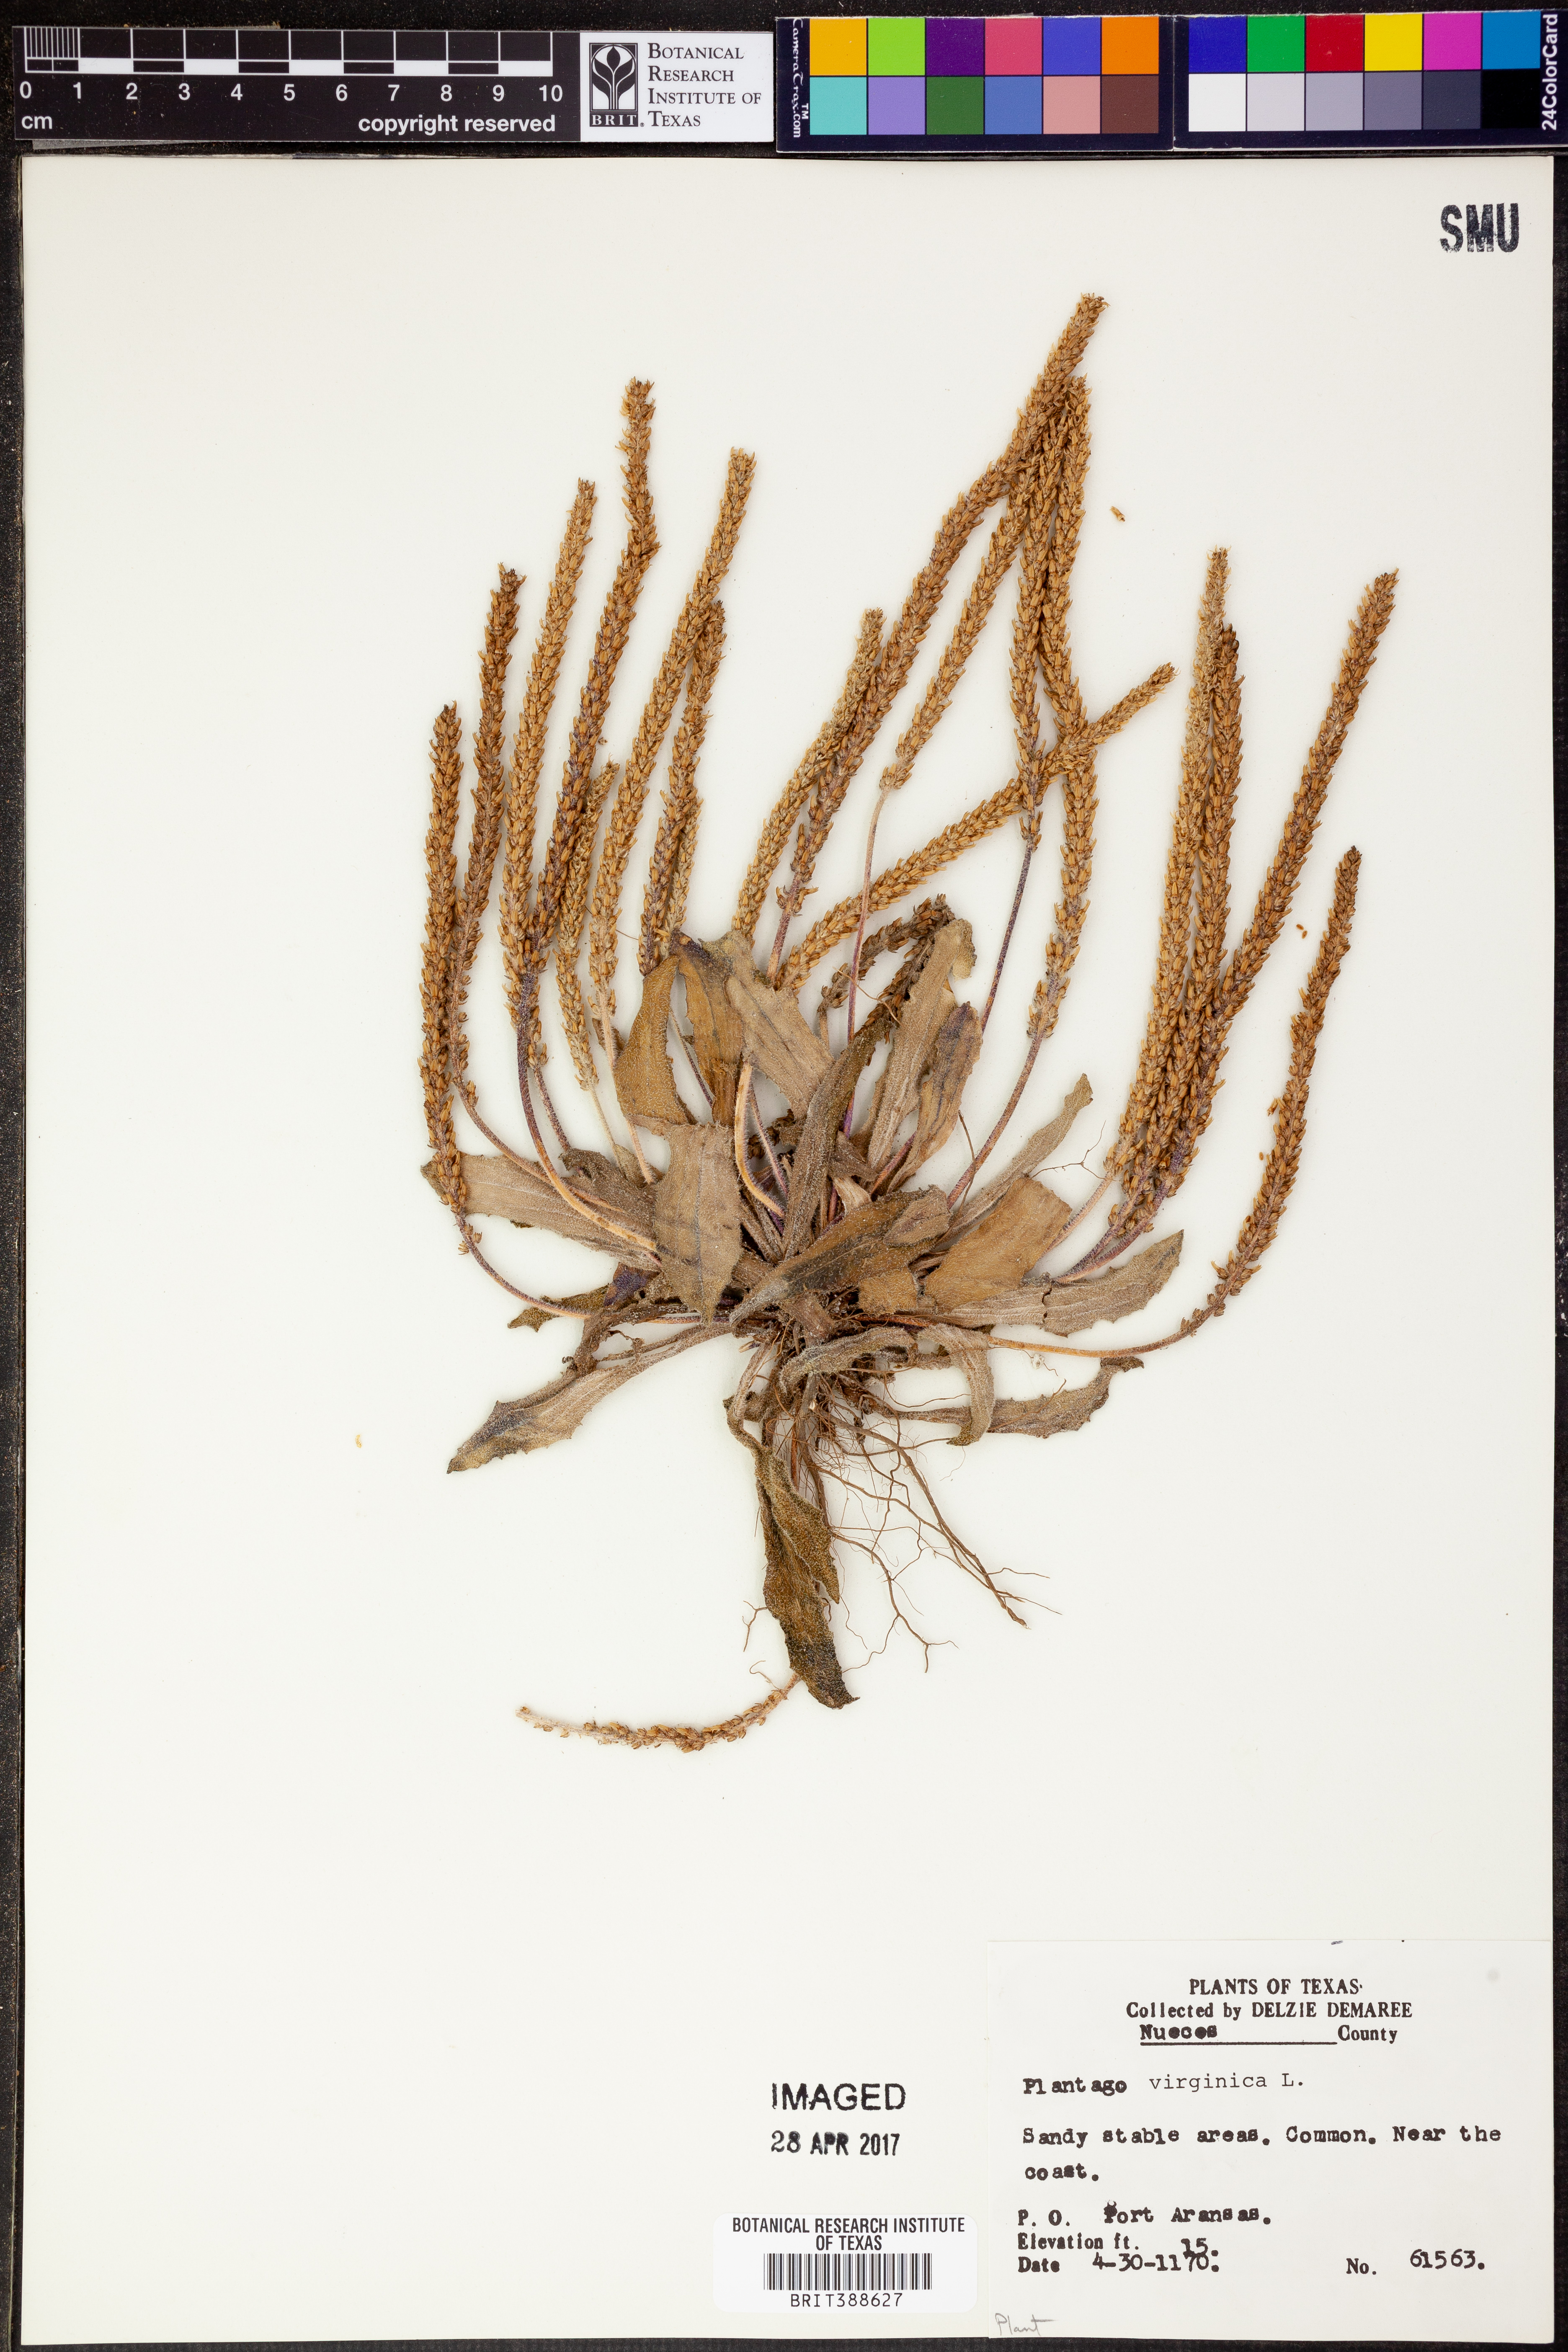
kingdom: Plantae
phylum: Tracheophyta
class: Magnoliopsida
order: Lamiales
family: Plantaginaceae
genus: Plantago
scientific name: Plantago virginica
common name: Hoary plantain
